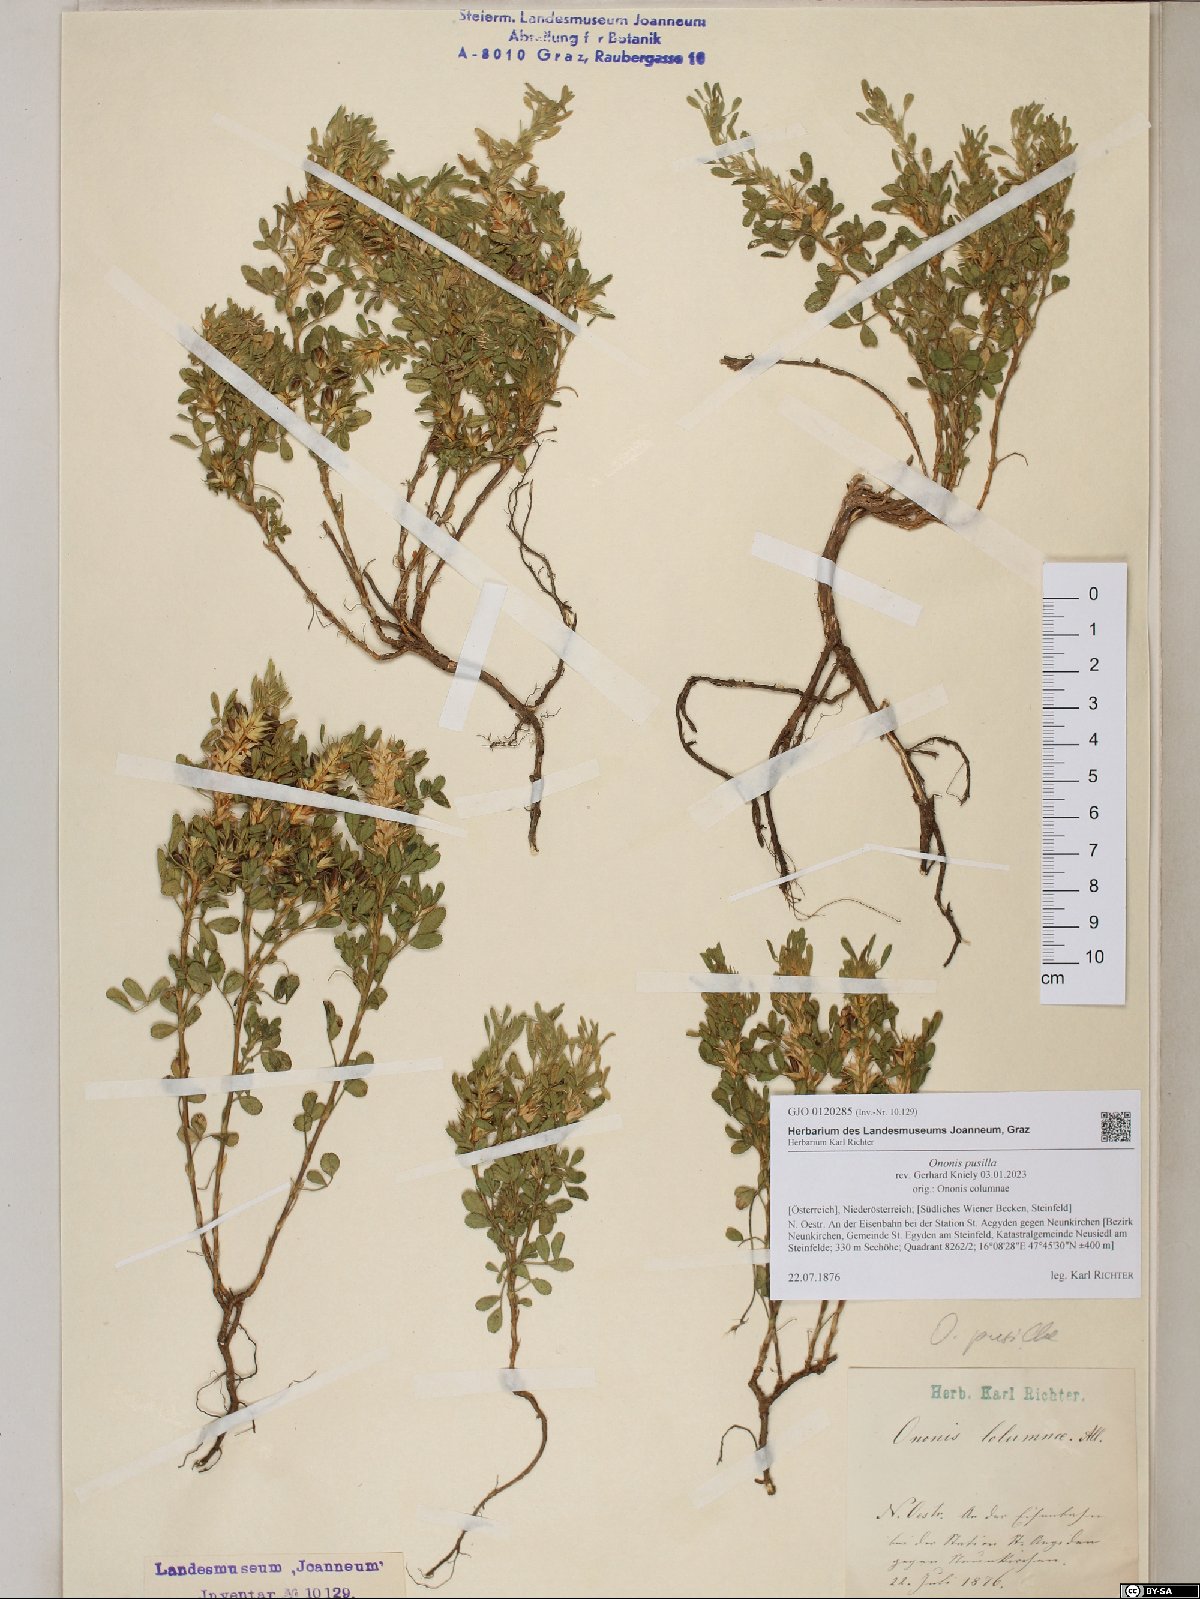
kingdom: Plantae
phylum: Tracheophyta
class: Magnoliopsida
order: Fabales
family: Fabaceae
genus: Ononis
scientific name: Ononis pusilla
